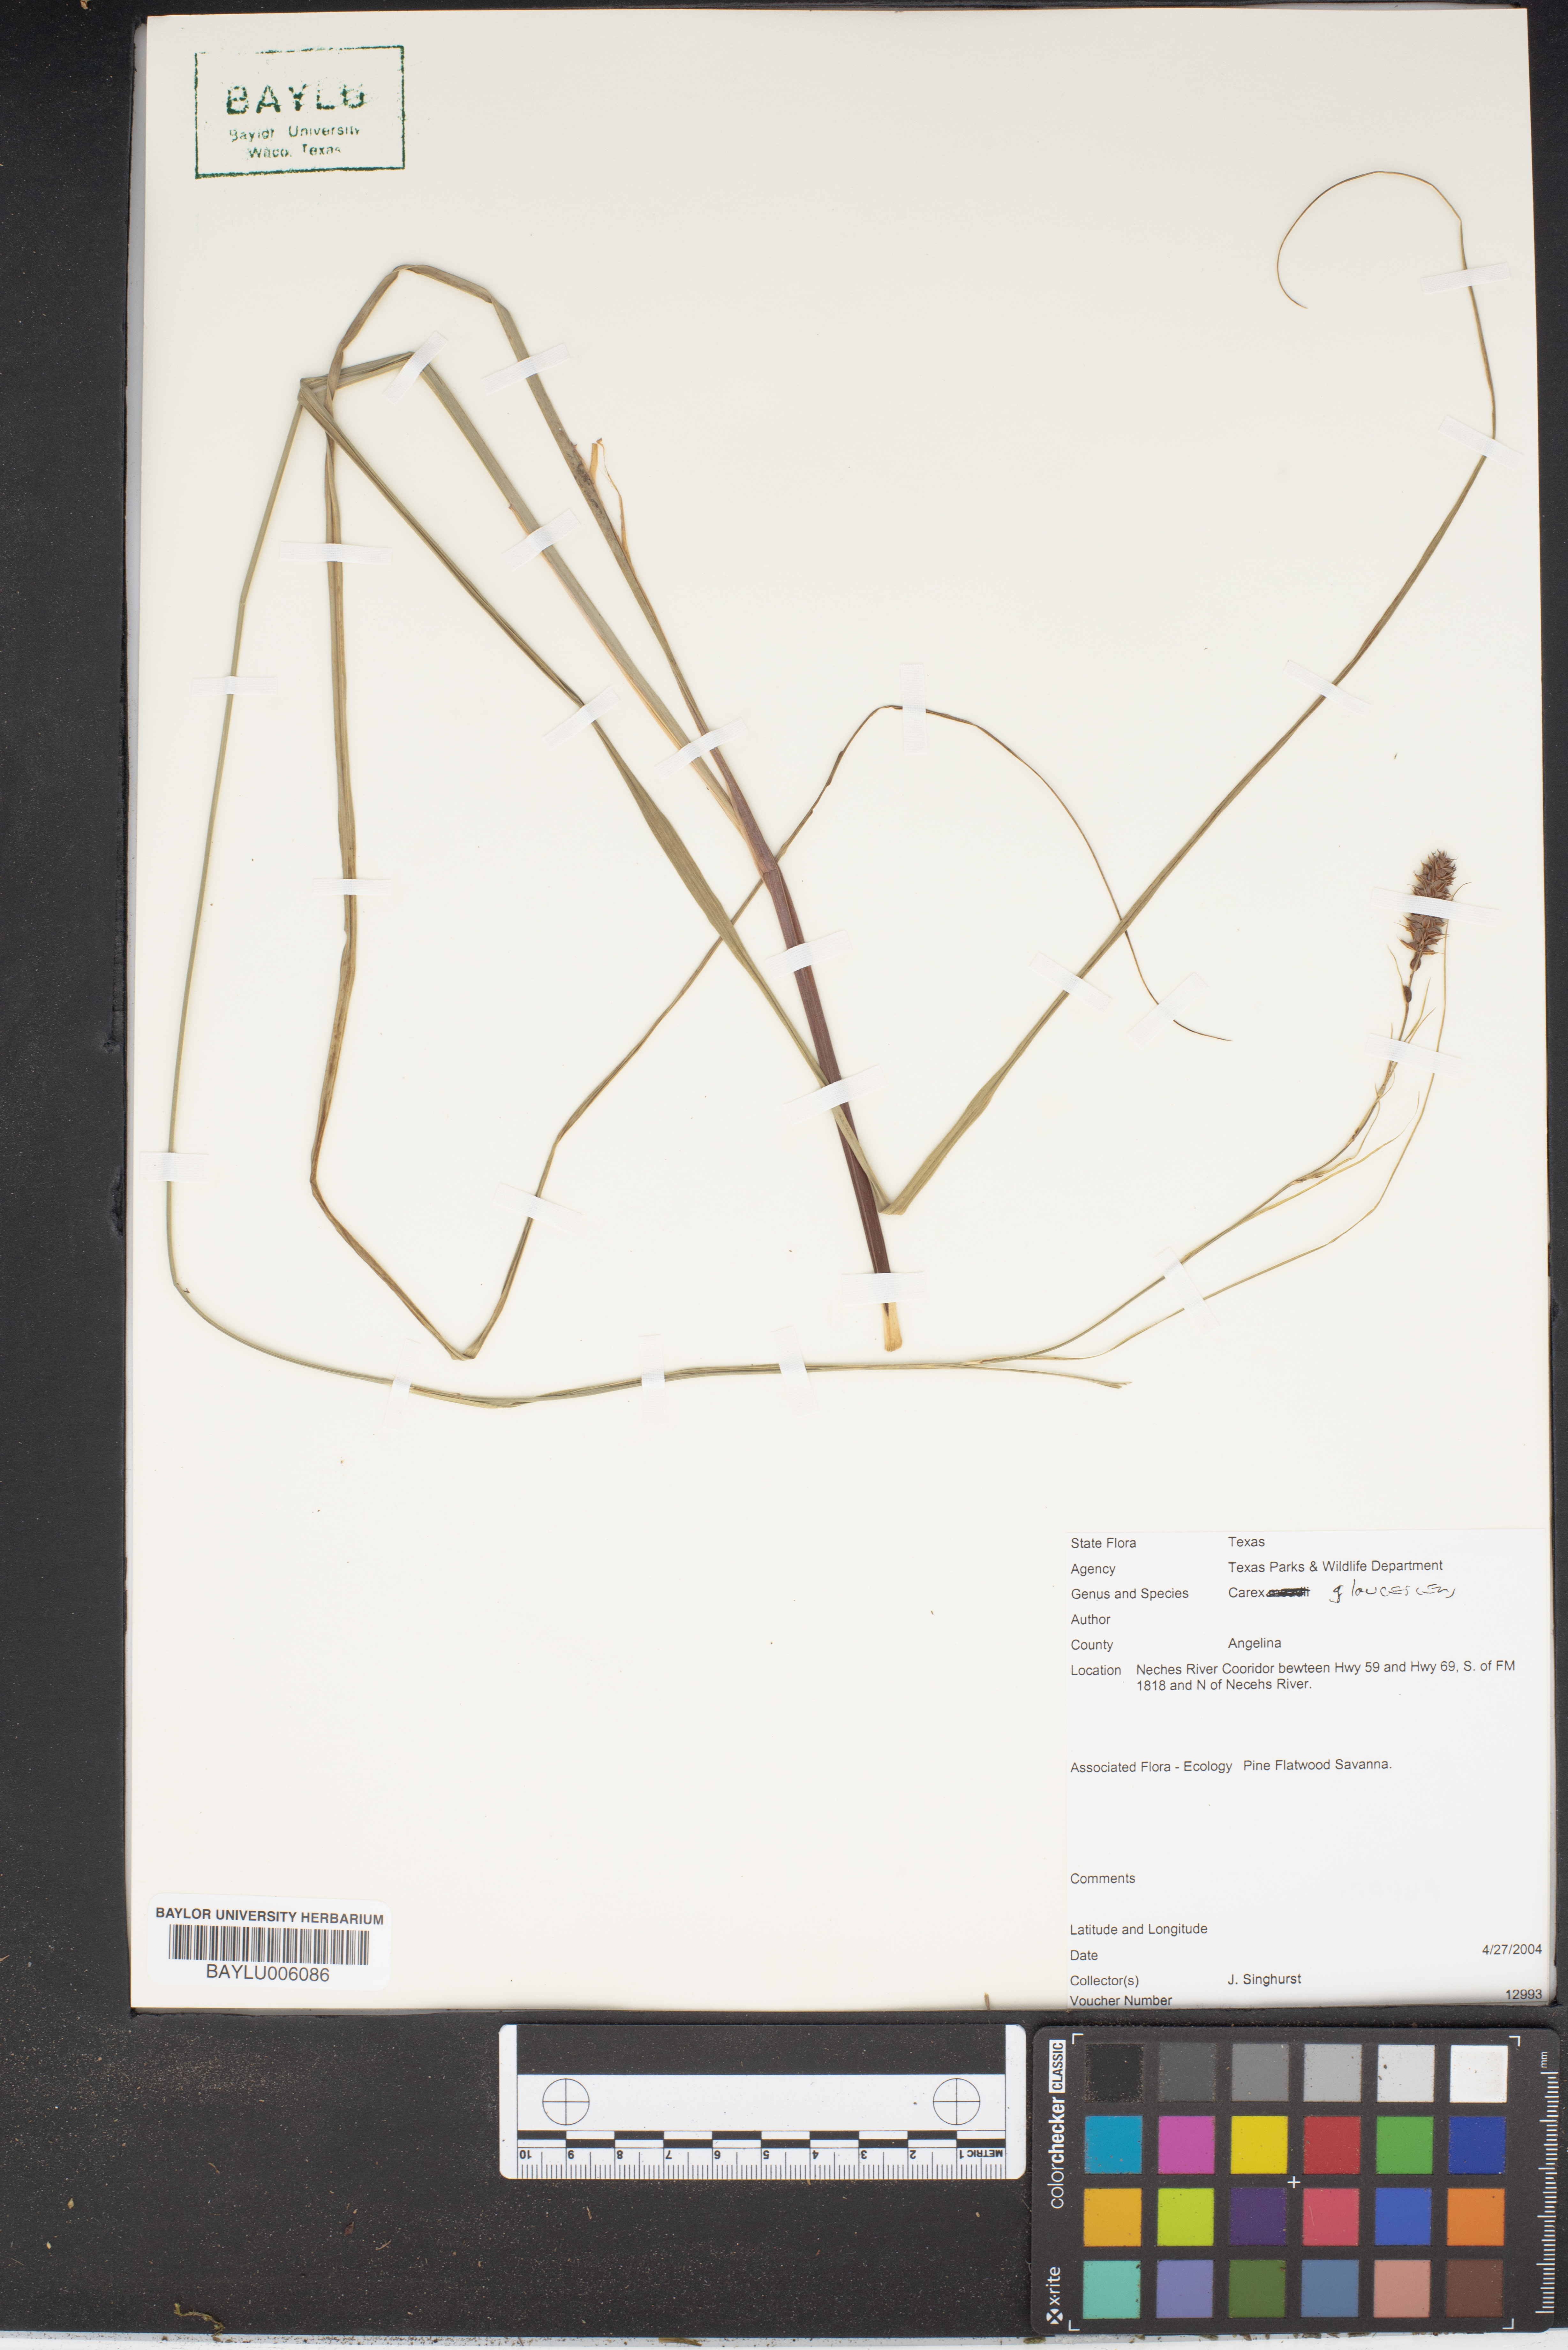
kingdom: Plantae
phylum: Tracheophyta
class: Liliopsida
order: Poales
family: Cyperaceae
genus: Carex
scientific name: Carex glaucescens
